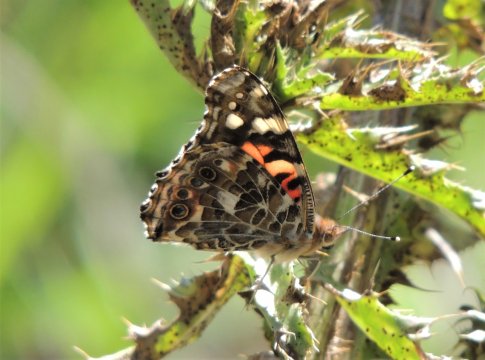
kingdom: Animalia
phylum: Arthropoda
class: Insecta
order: Lepidoptera
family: Nymphalidae
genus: Vanessa
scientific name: Vanessa cardui
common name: Painted Lady
